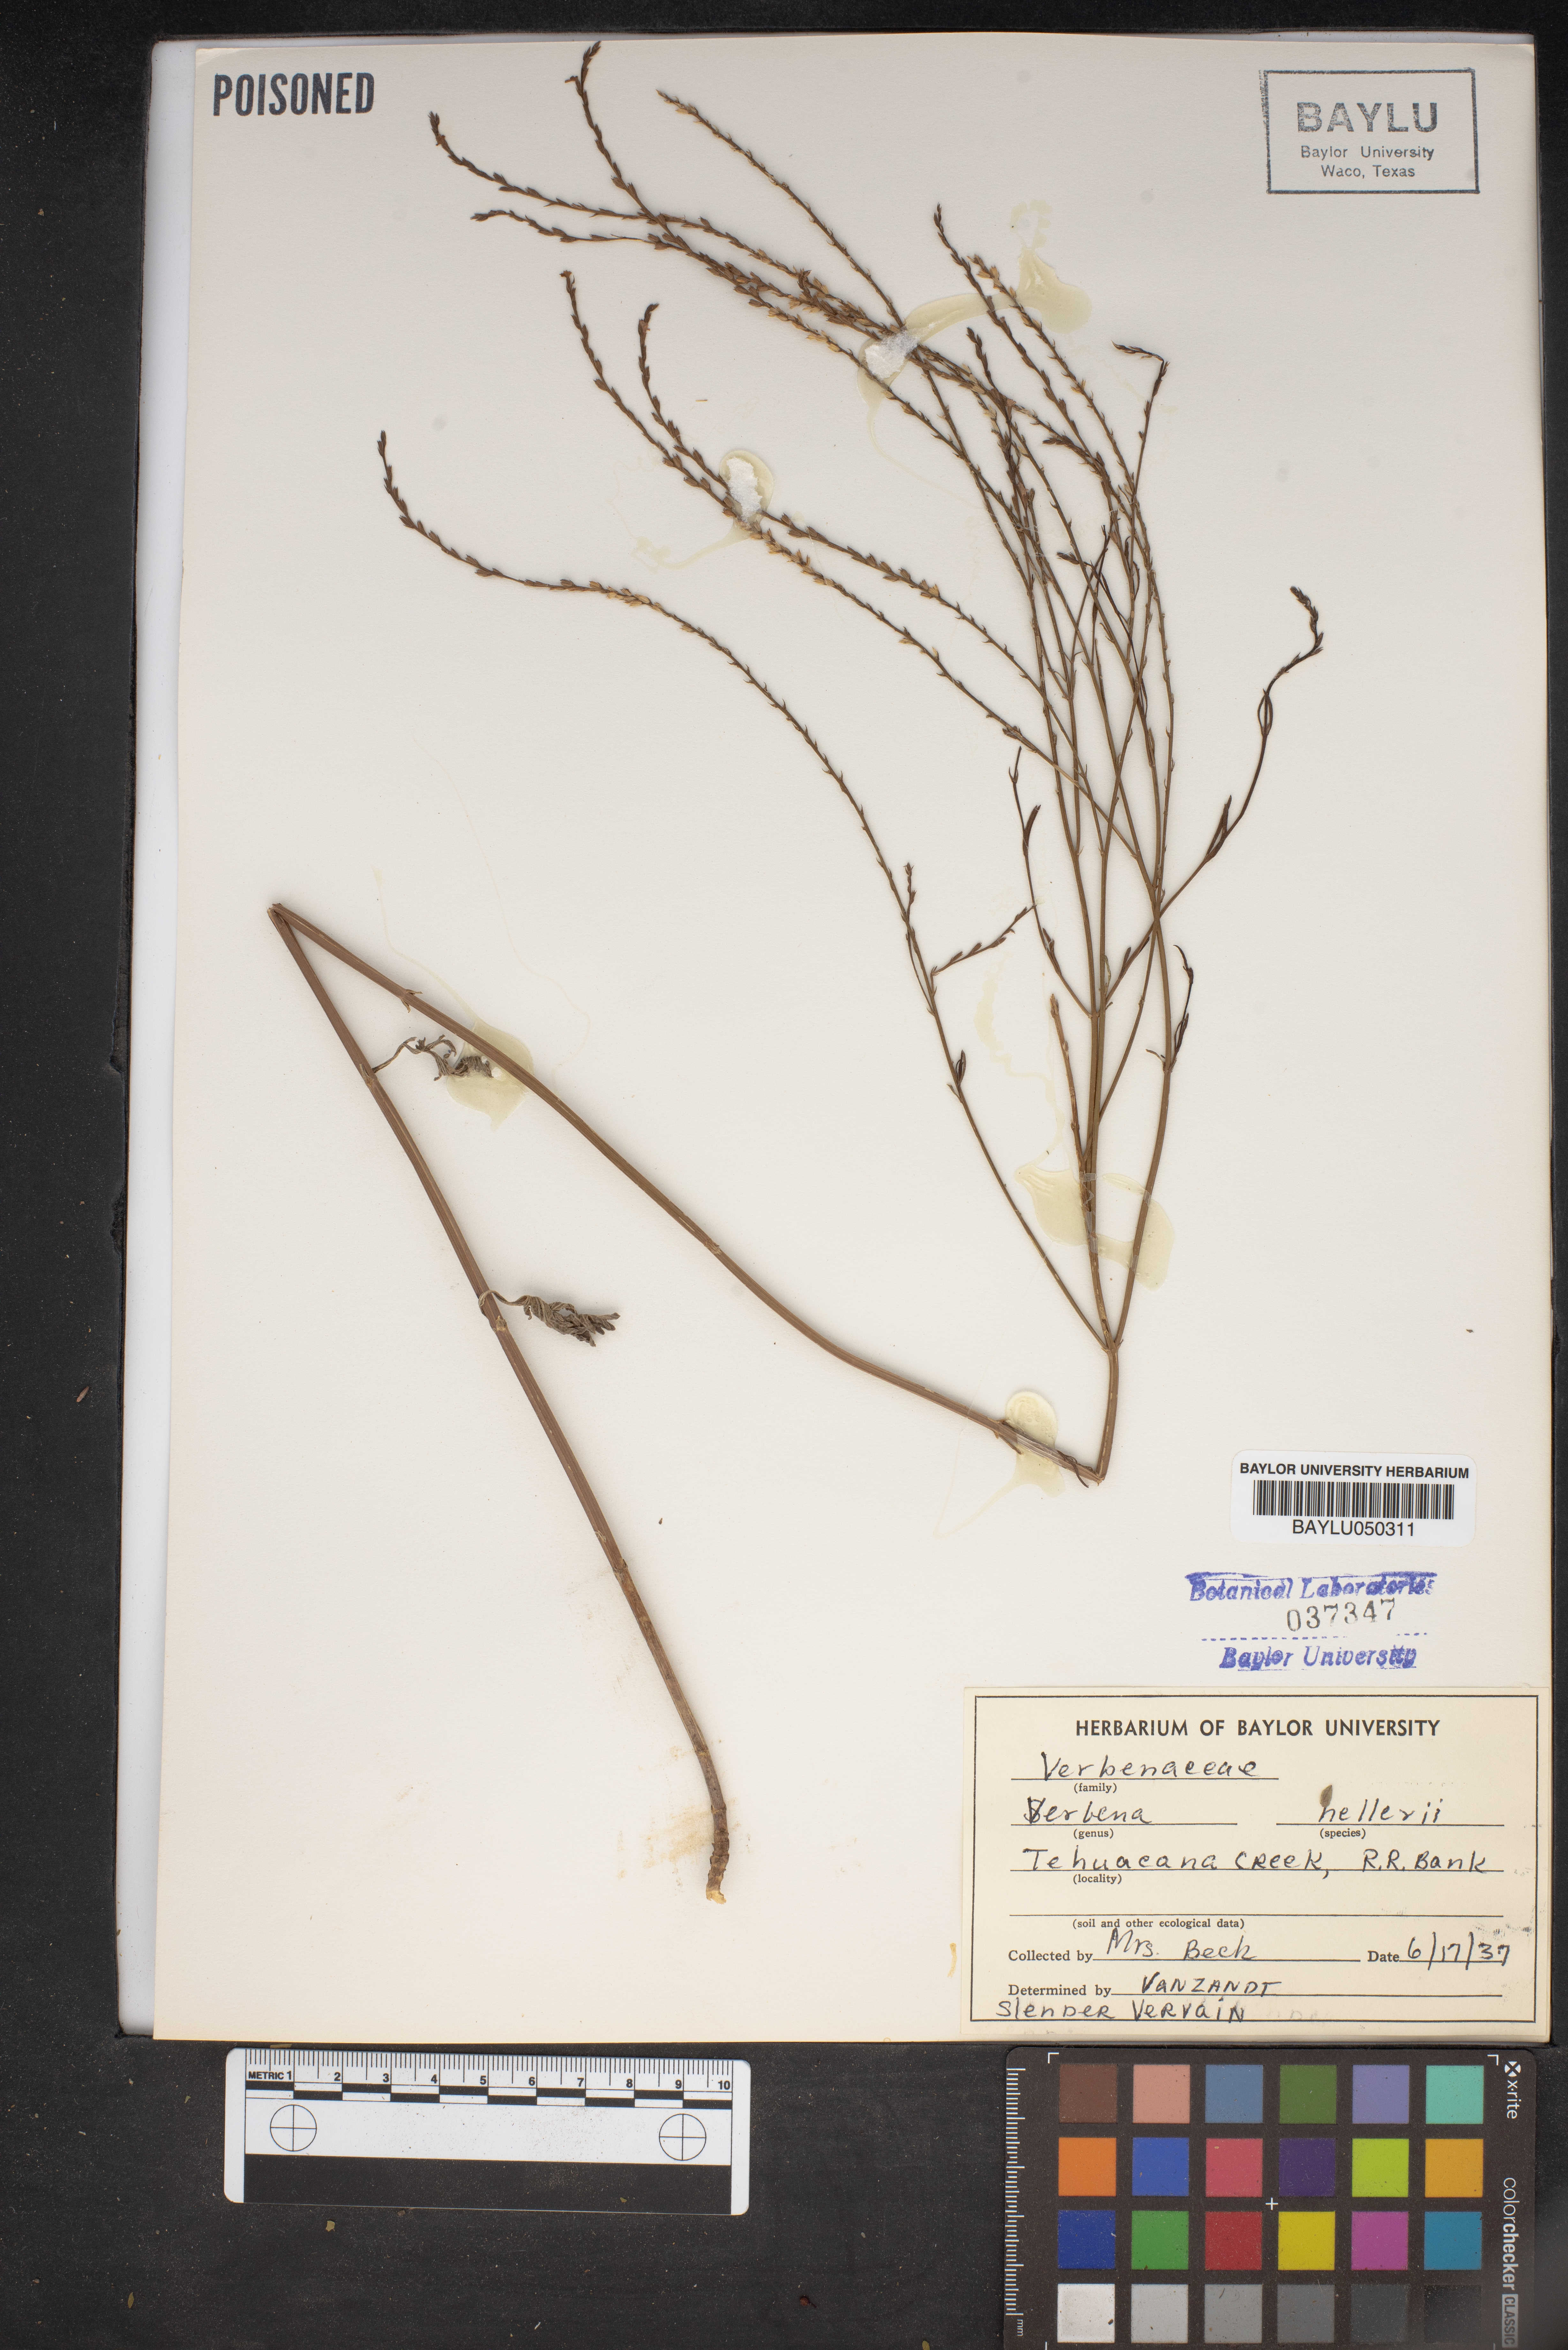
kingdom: Plantae
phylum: Tracheophyta
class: Magnoliopsida
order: Lamiales
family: Verbenaceae
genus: Verbena
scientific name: Verbena halei
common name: Texas vervain
